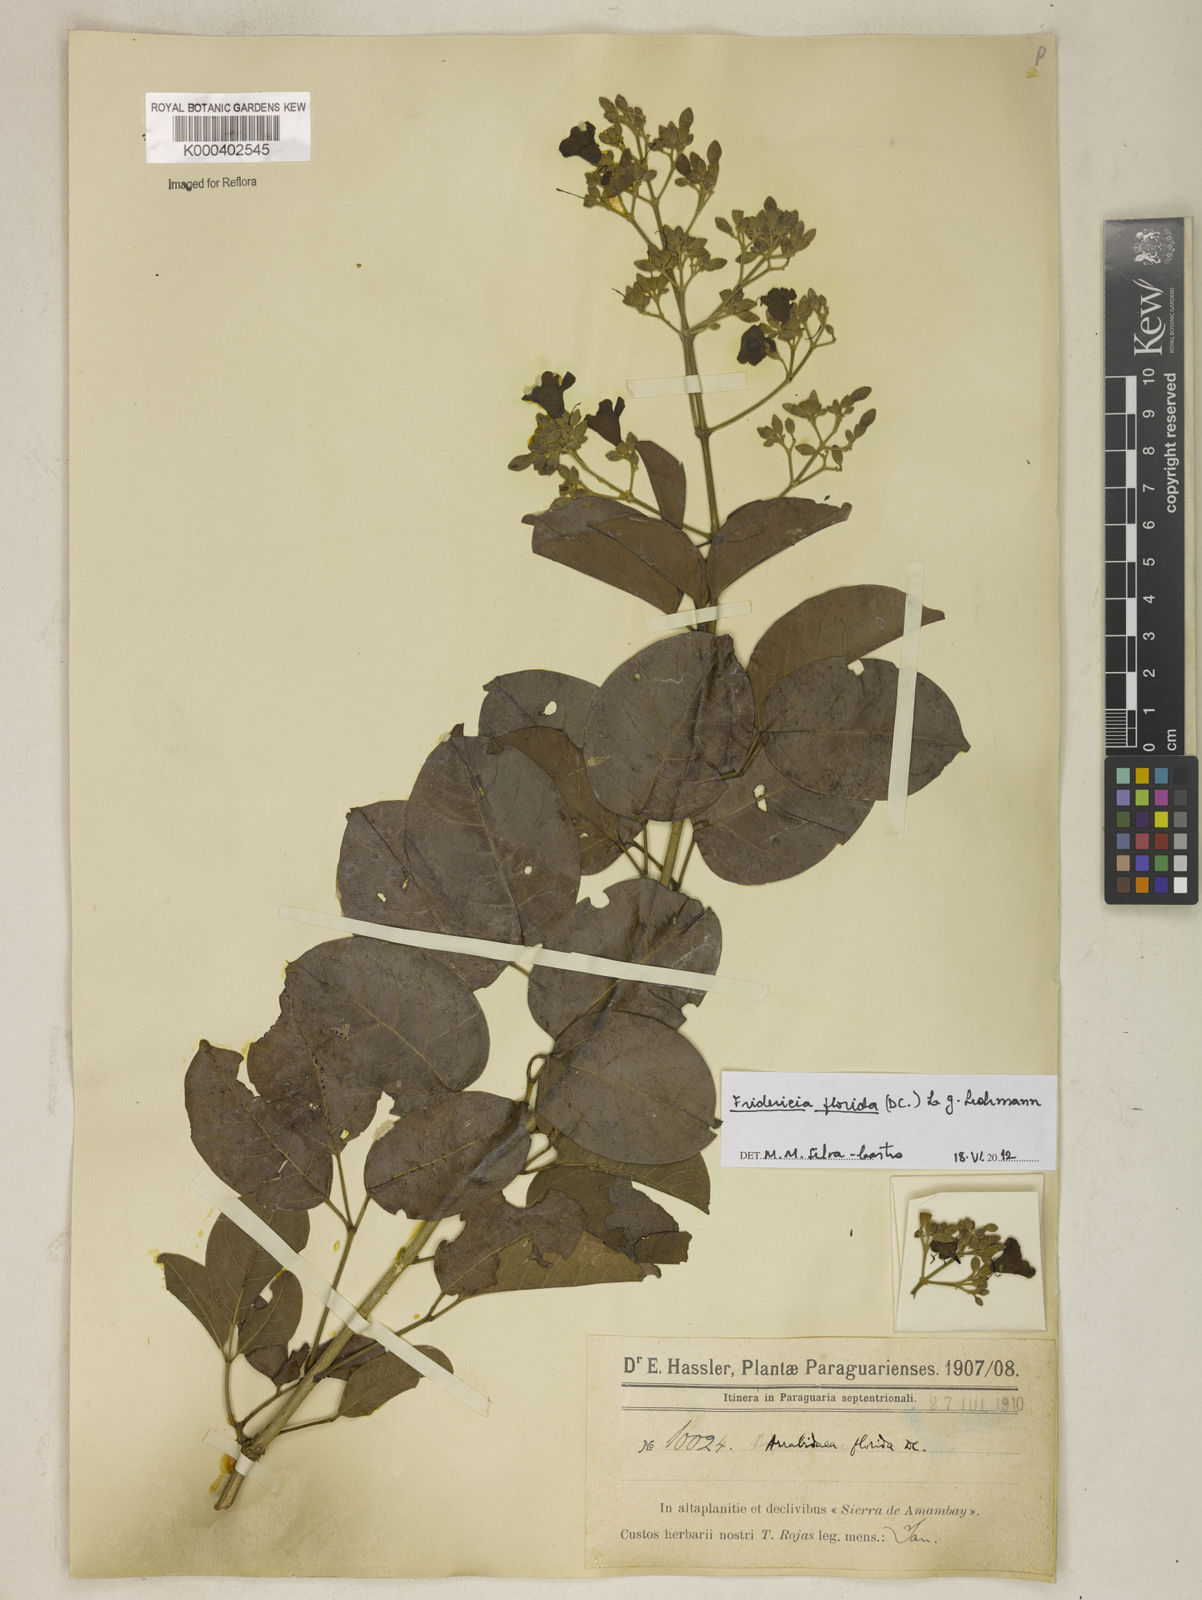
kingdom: Plantae
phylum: Tracheophyta
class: Magnoliopsida
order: Lamiales
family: Bignoniaceae
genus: Fridericia
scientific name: Fridericia florida
